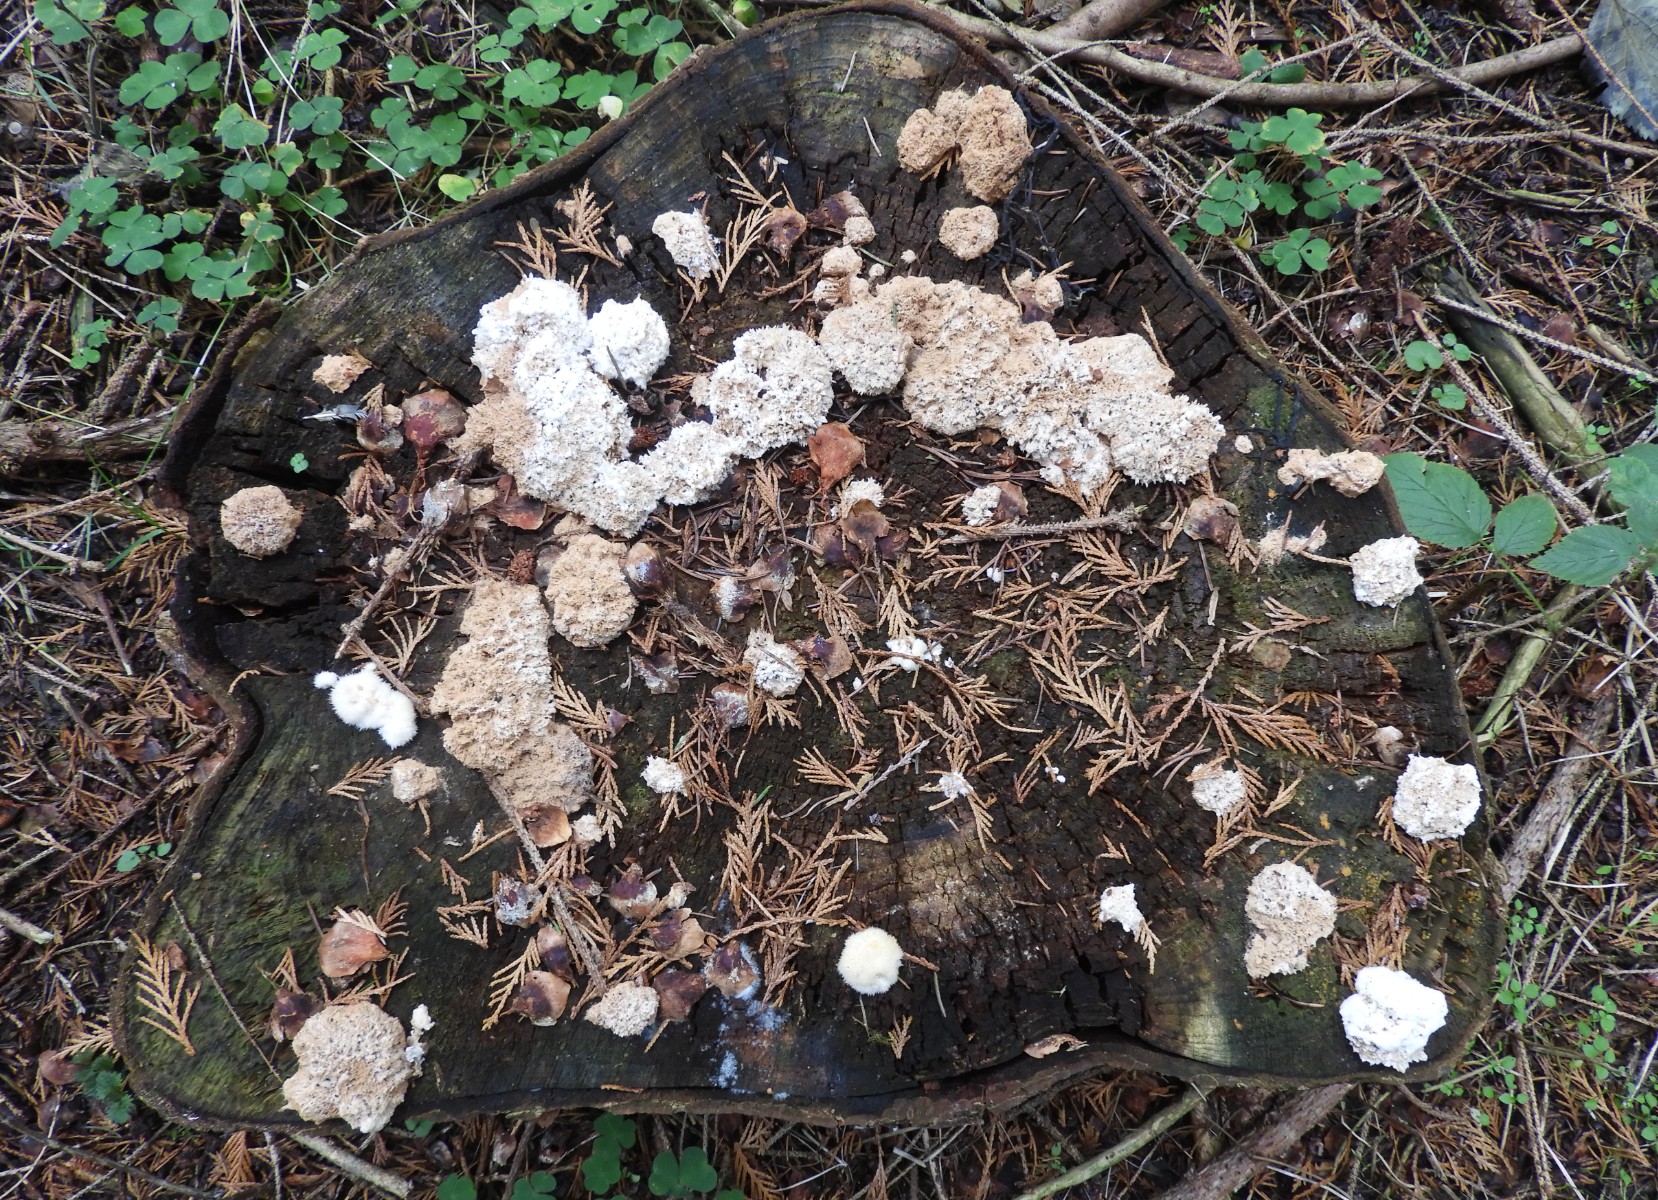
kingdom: Fungi
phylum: Basidiomycota
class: Agaricomycetes
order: Polyporales
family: Dacryobolaceae
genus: Postia
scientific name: Postia ptychogaster
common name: støvende kødporesvamp
